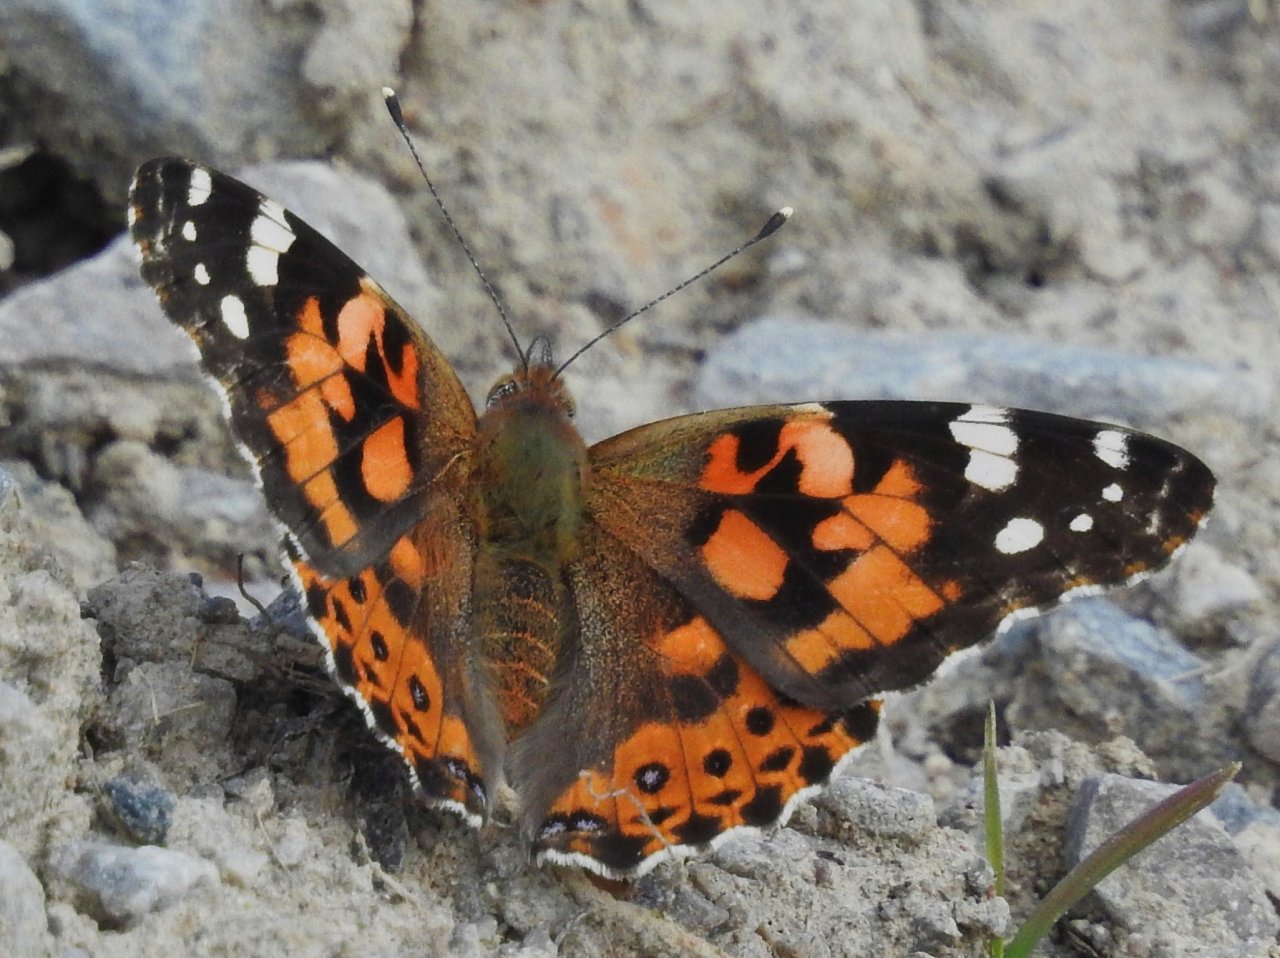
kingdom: Animalia
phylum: Arthropoda
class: Insecta
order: Lepidoptera
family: Nymphalidae
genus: Vanessa
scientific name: Vanessa cardui
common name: Painted Lady
